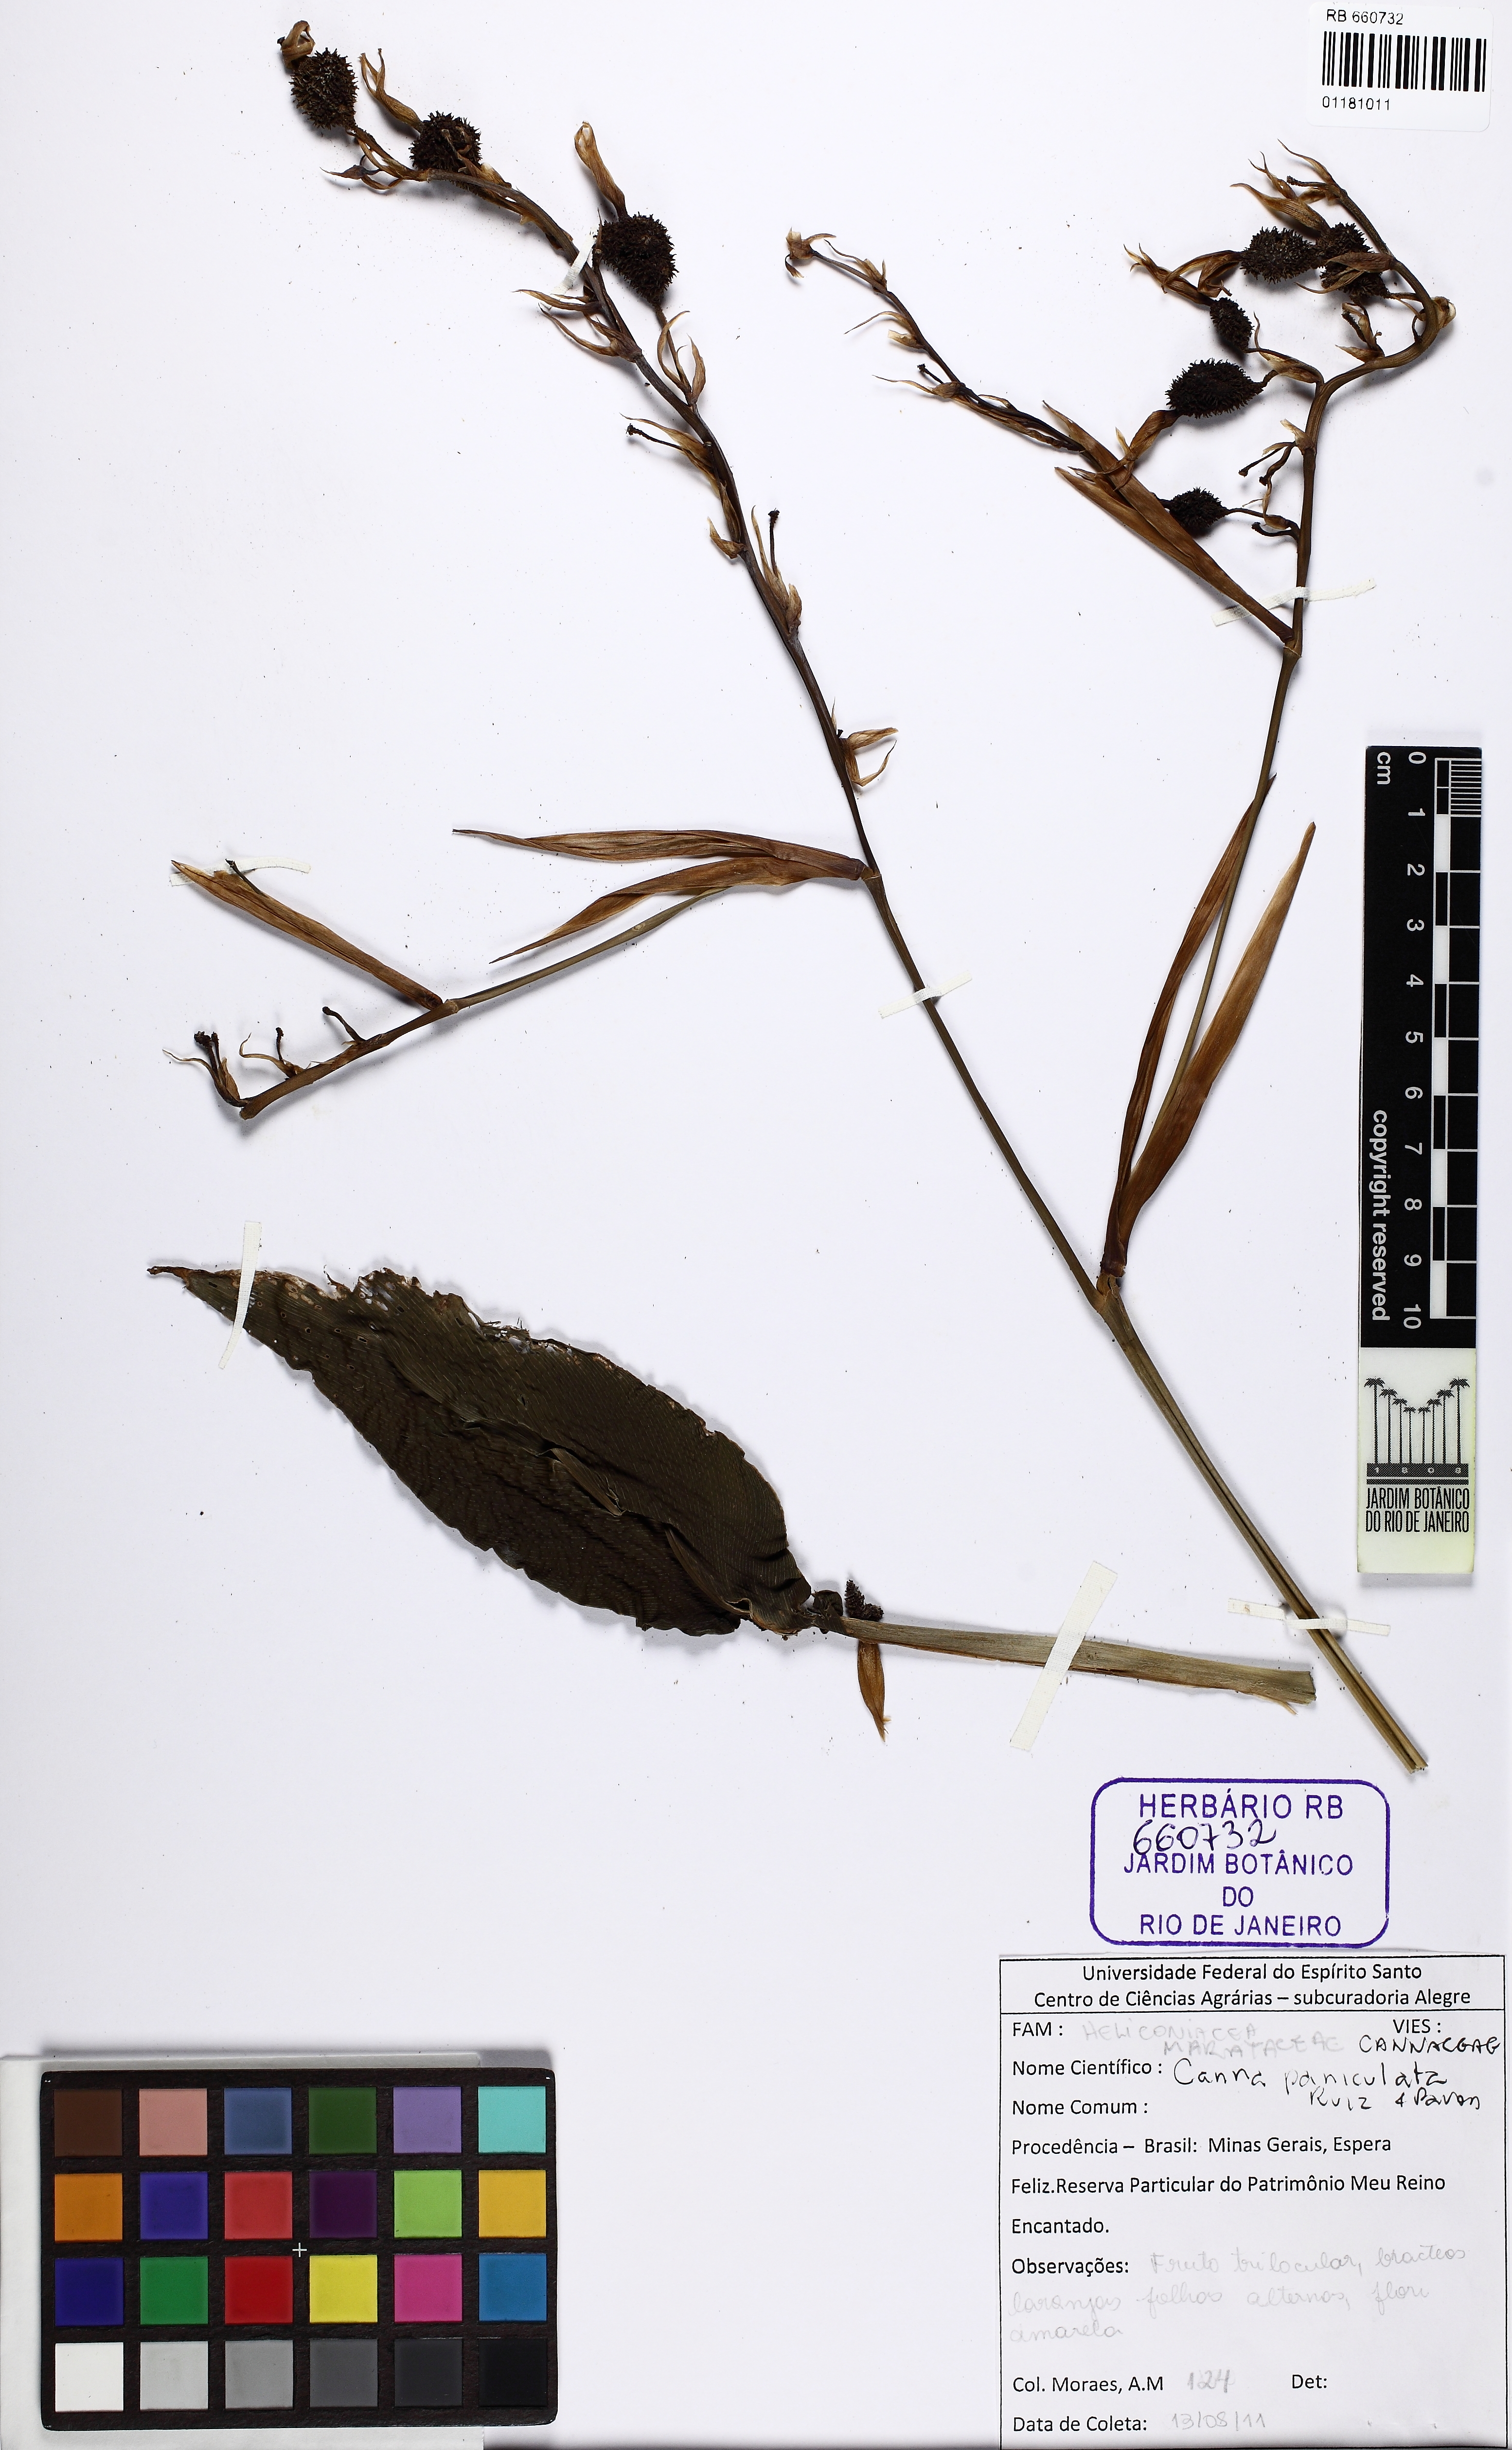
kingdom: Plantae
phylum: Tracheophyta
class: Liliopsida
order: Zingiberales
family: Cannaceae
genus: Canna
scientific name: Canna paniculata
